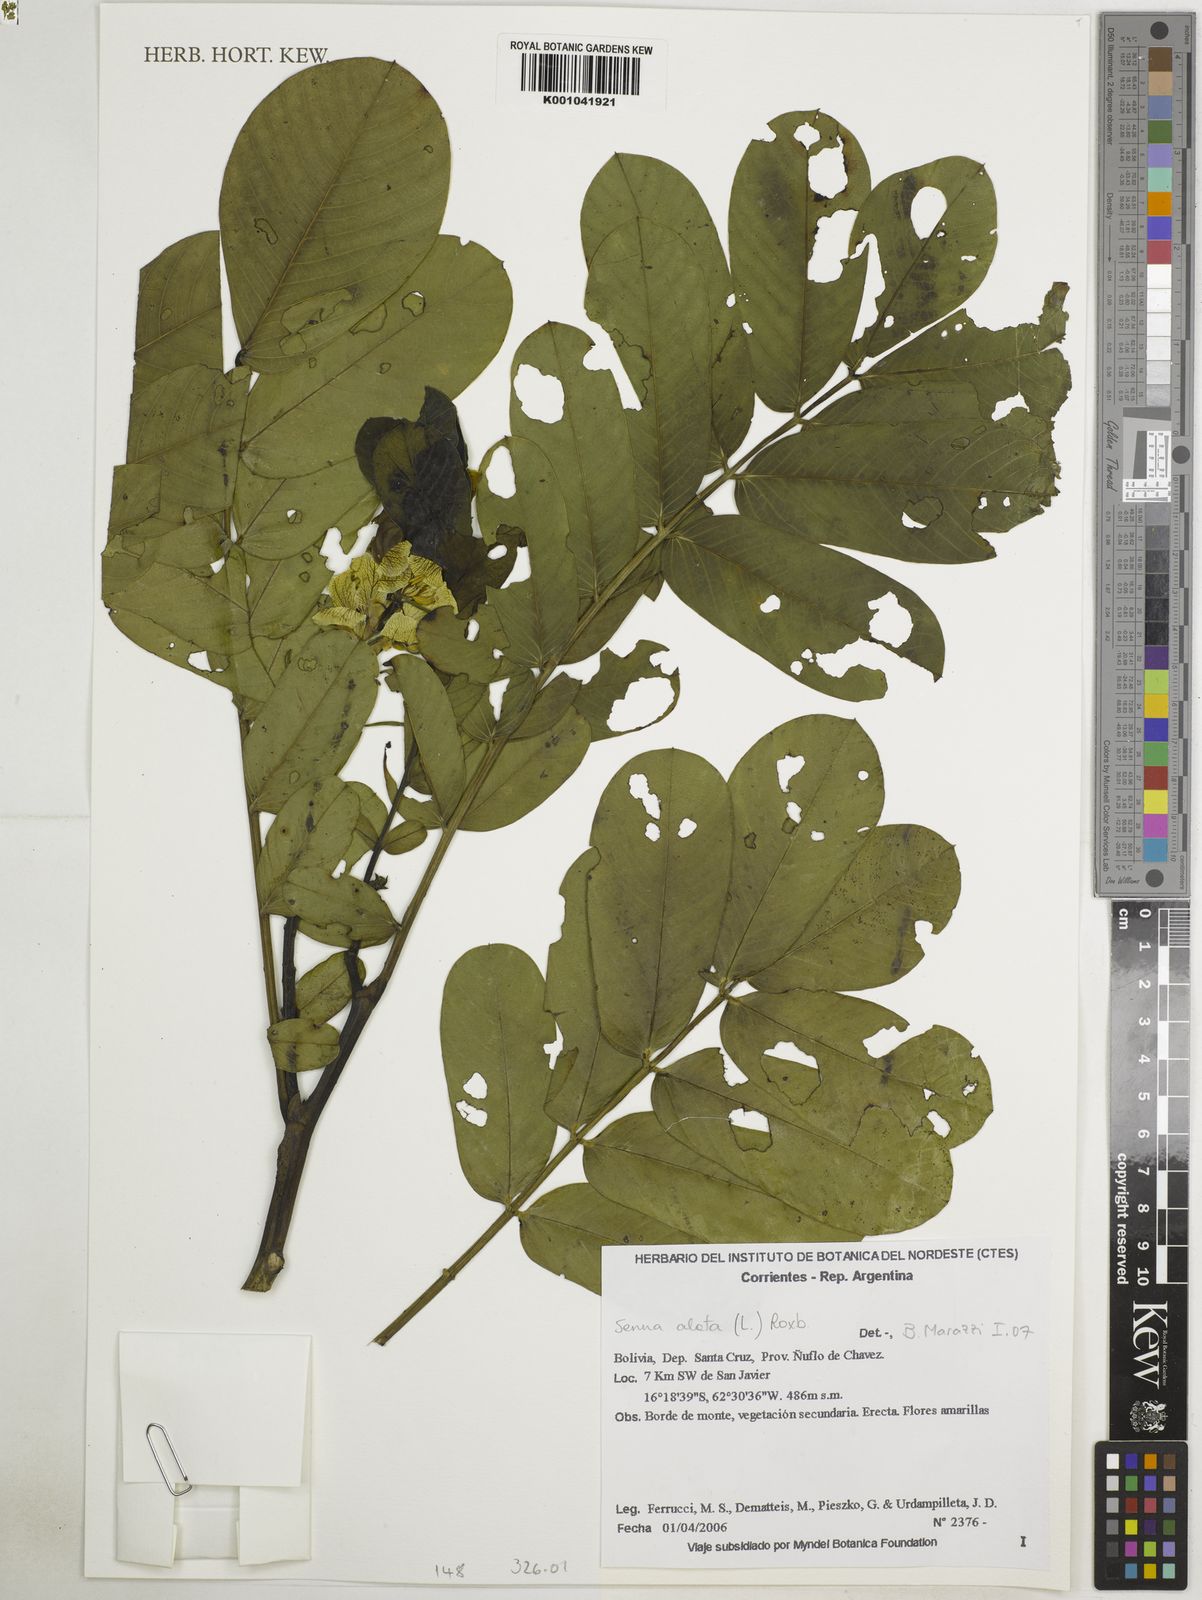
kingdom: Plantae
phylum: Tracheophyta
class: Magnoliopsida
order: Fabales
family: Fabaceae
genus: Senna
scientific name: Senna alata
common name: Emperor's candlesticks
